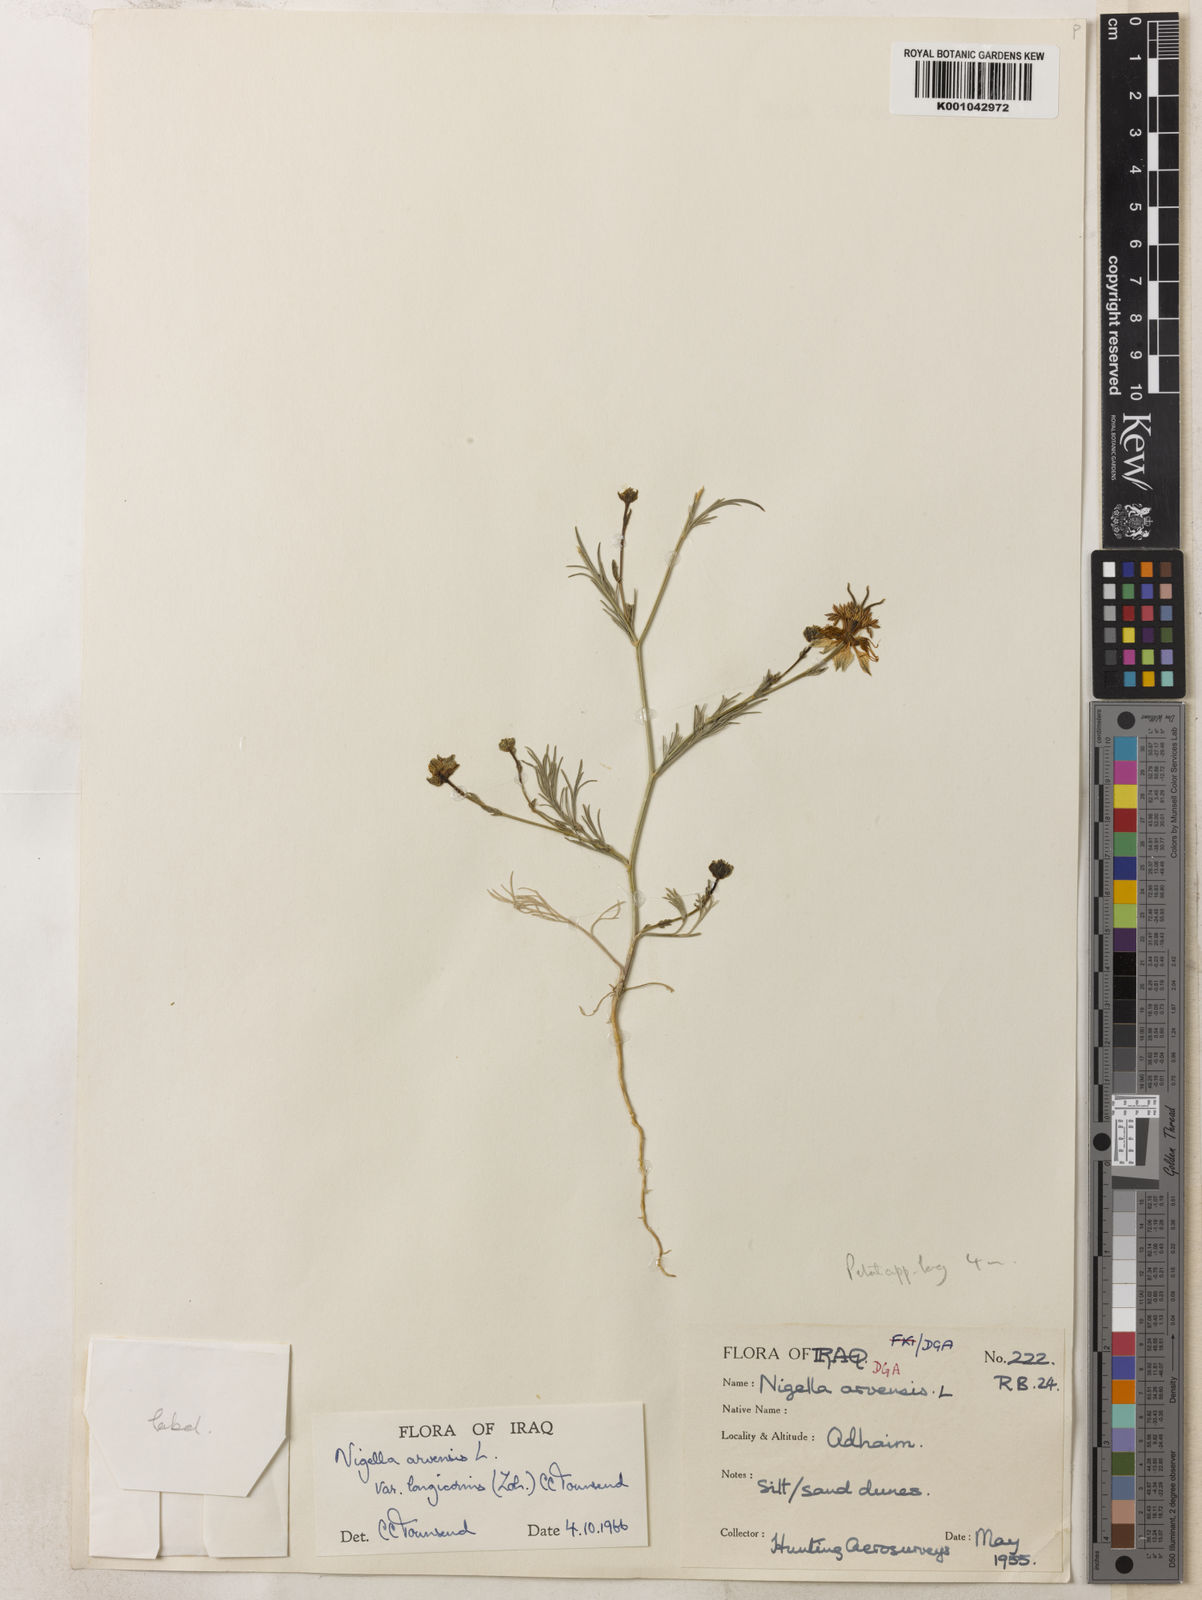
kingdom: Plantae
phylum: Tracheophyta
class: Magnoliopsida
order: Ranunculales
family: Ranunculaceae
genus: Nigella
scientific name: Nigella arvensis
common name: Wild fennel-flower
